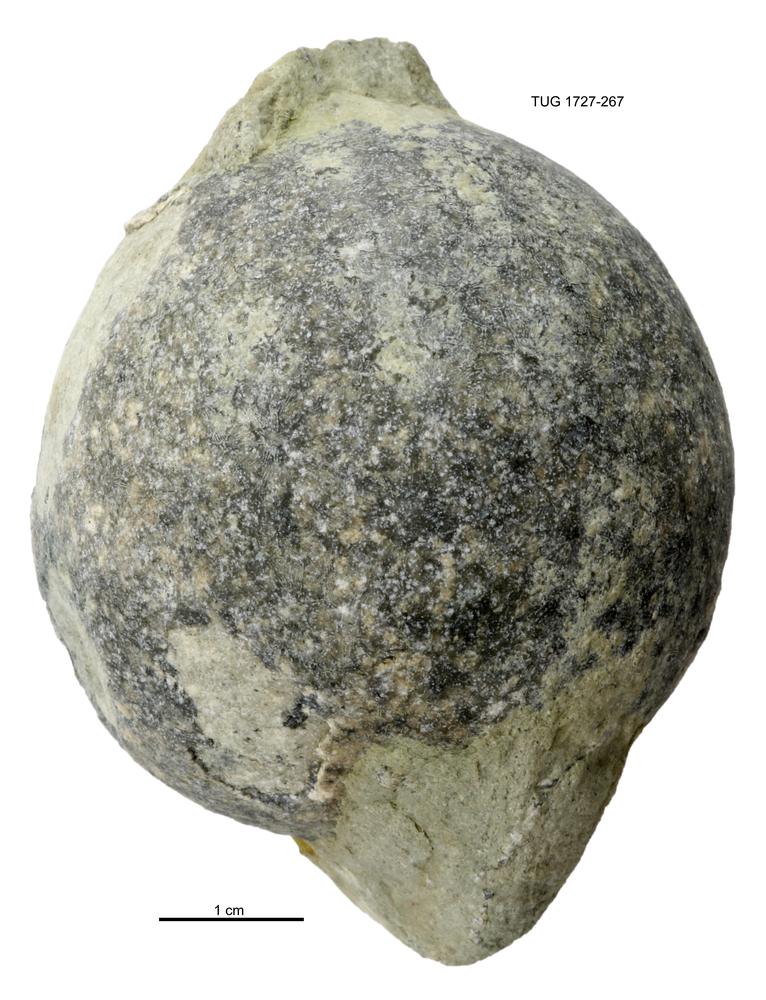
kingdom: Animalia
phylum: Echinodermata
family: Echinosphaeritidae
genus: Echinosphaerites
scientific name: Echinosphaerites
